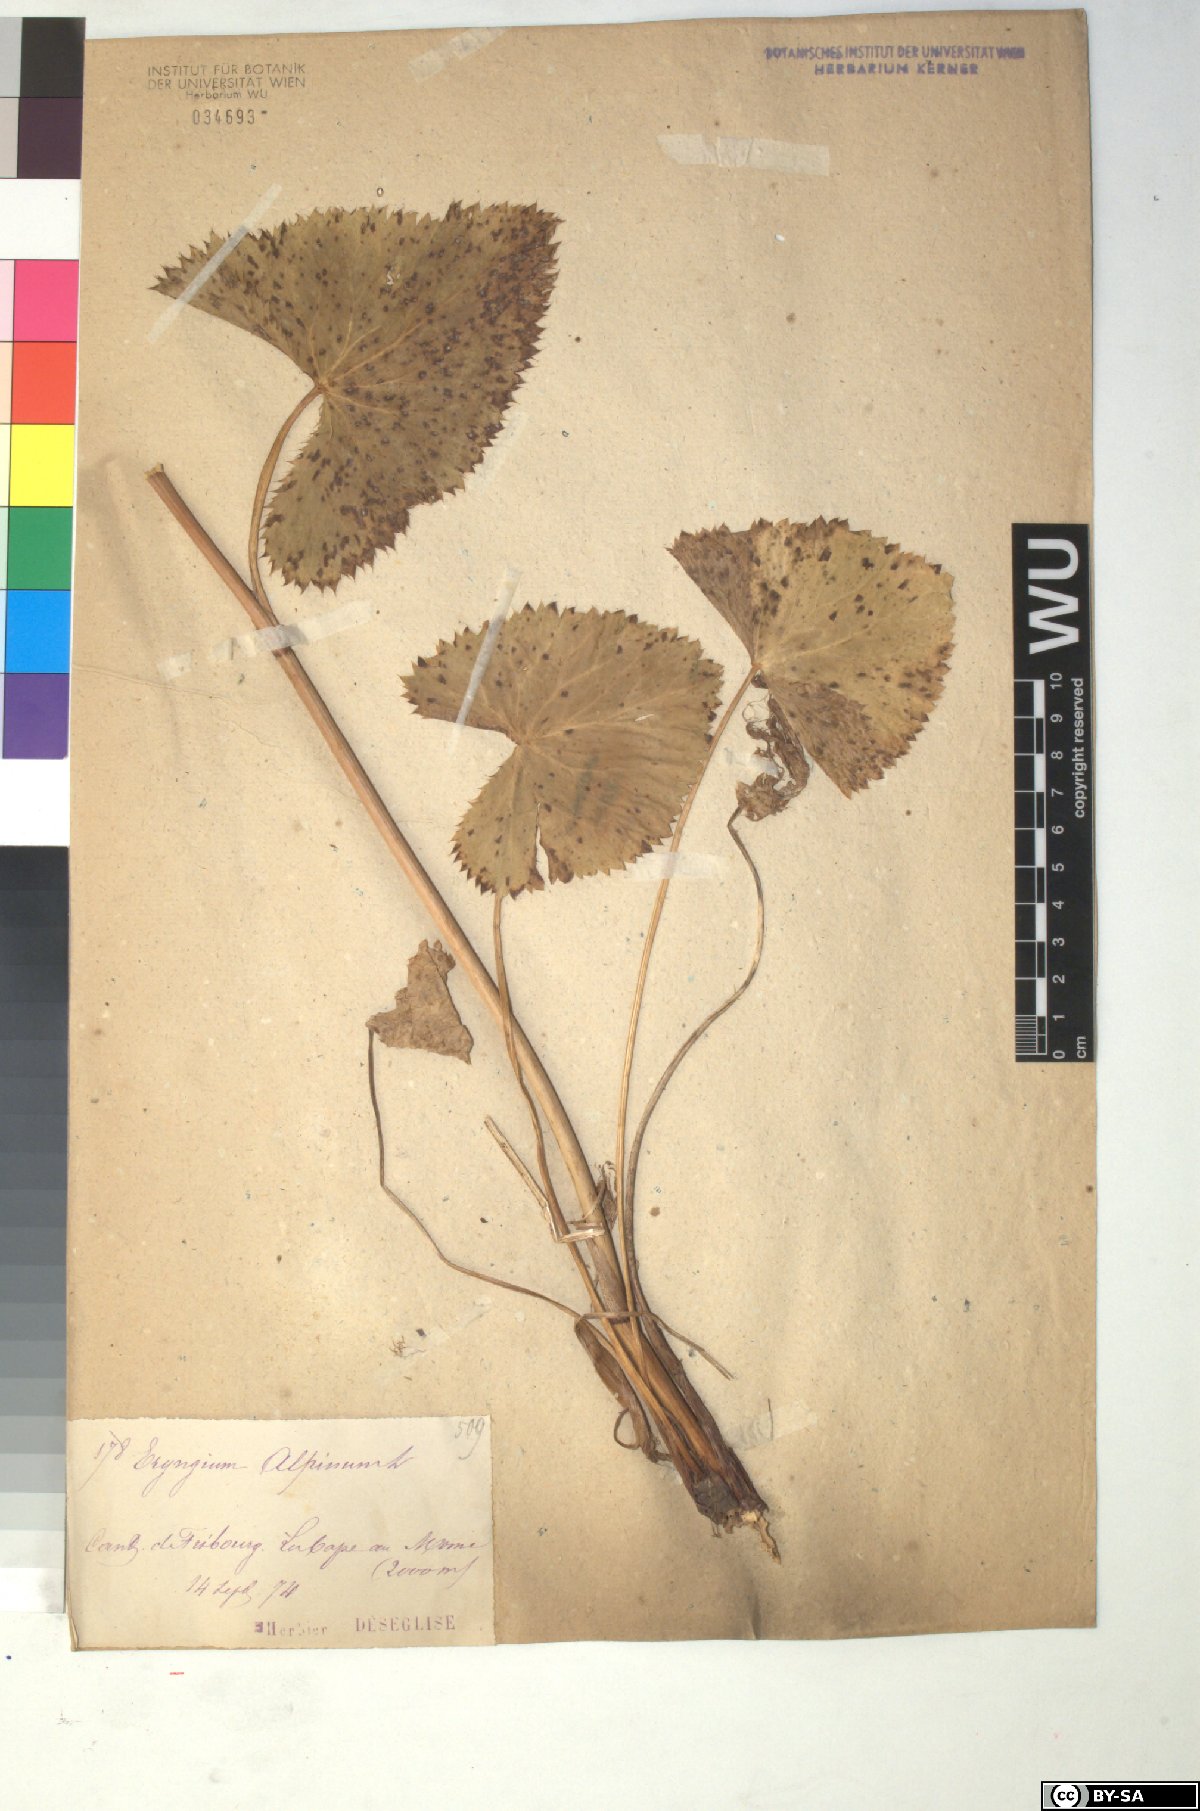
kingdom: Plantae
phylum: Tracheophyta
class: Magnoliopsida
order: Apiales
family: Apiaceae
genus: Eryngium
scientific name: Eryngium alpinum
